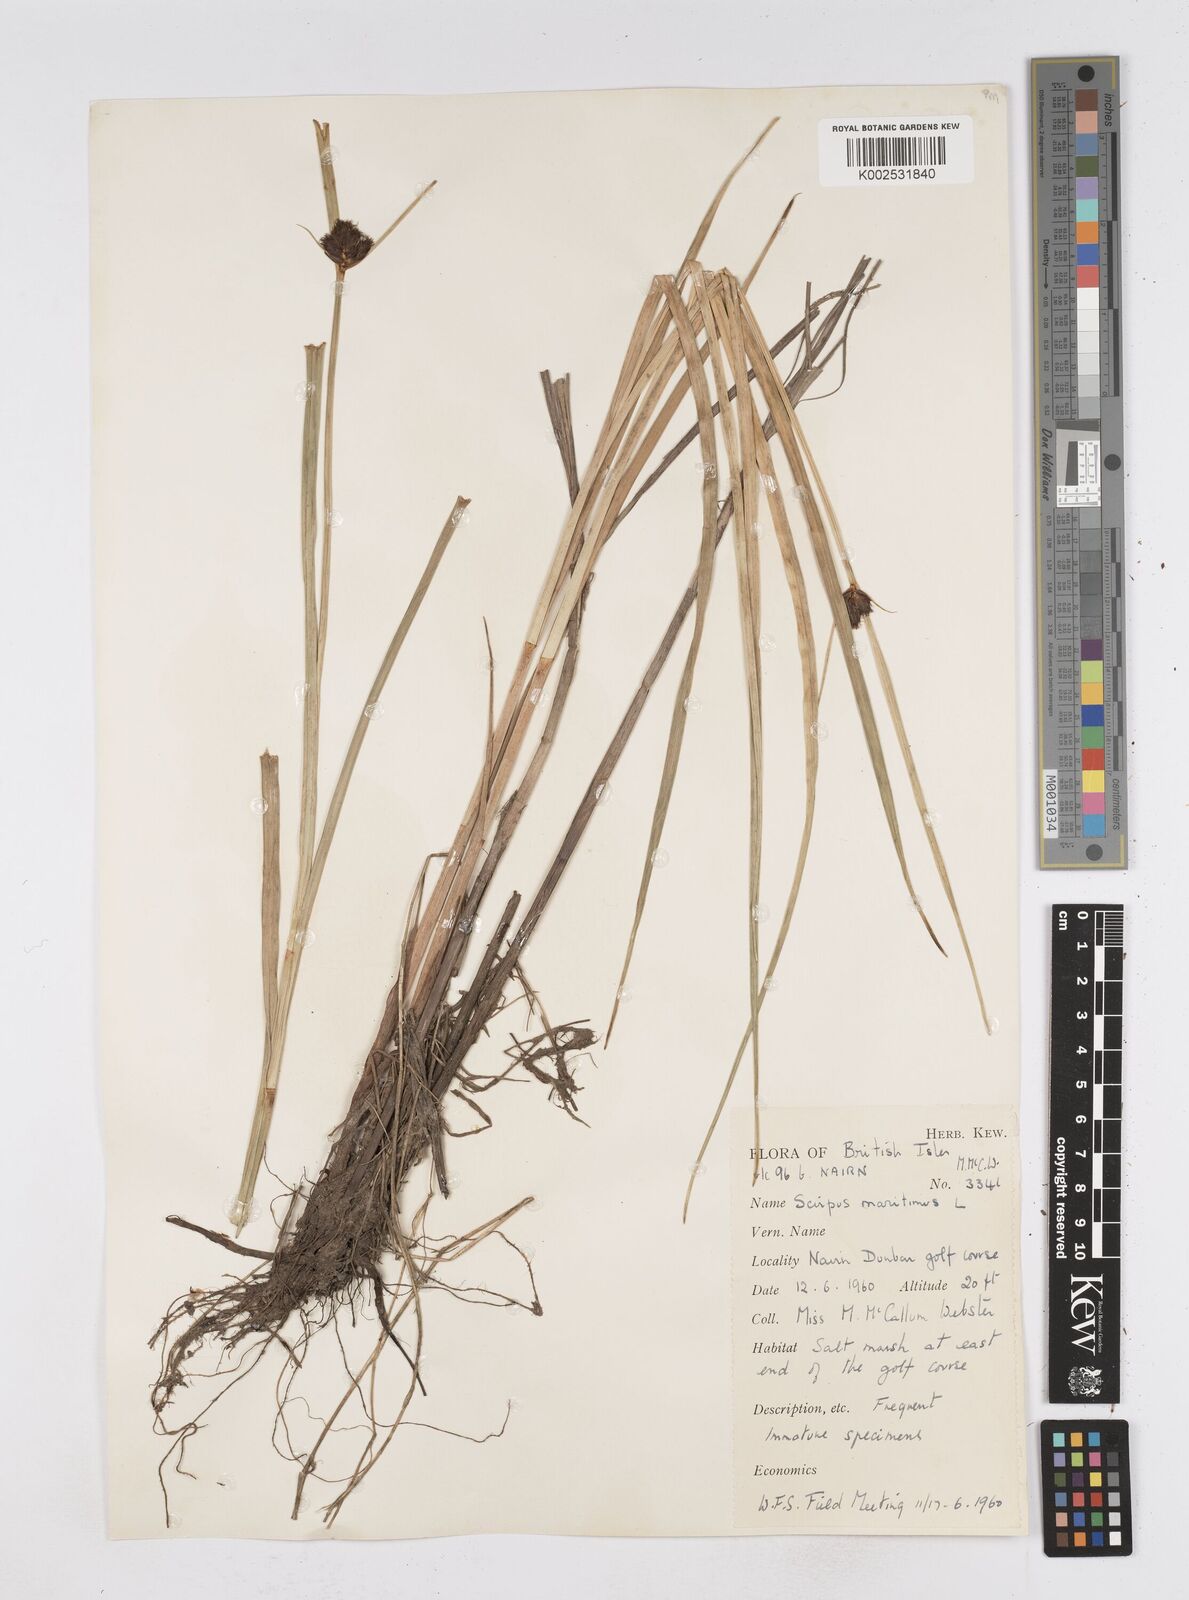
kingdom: Plantae
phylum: Tracheophyta
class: Liliopsida
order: Poales
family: Cyperaceae
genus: Bolboschoenus
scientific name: Bolboschoenus maritimus
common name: Sea club-rush
